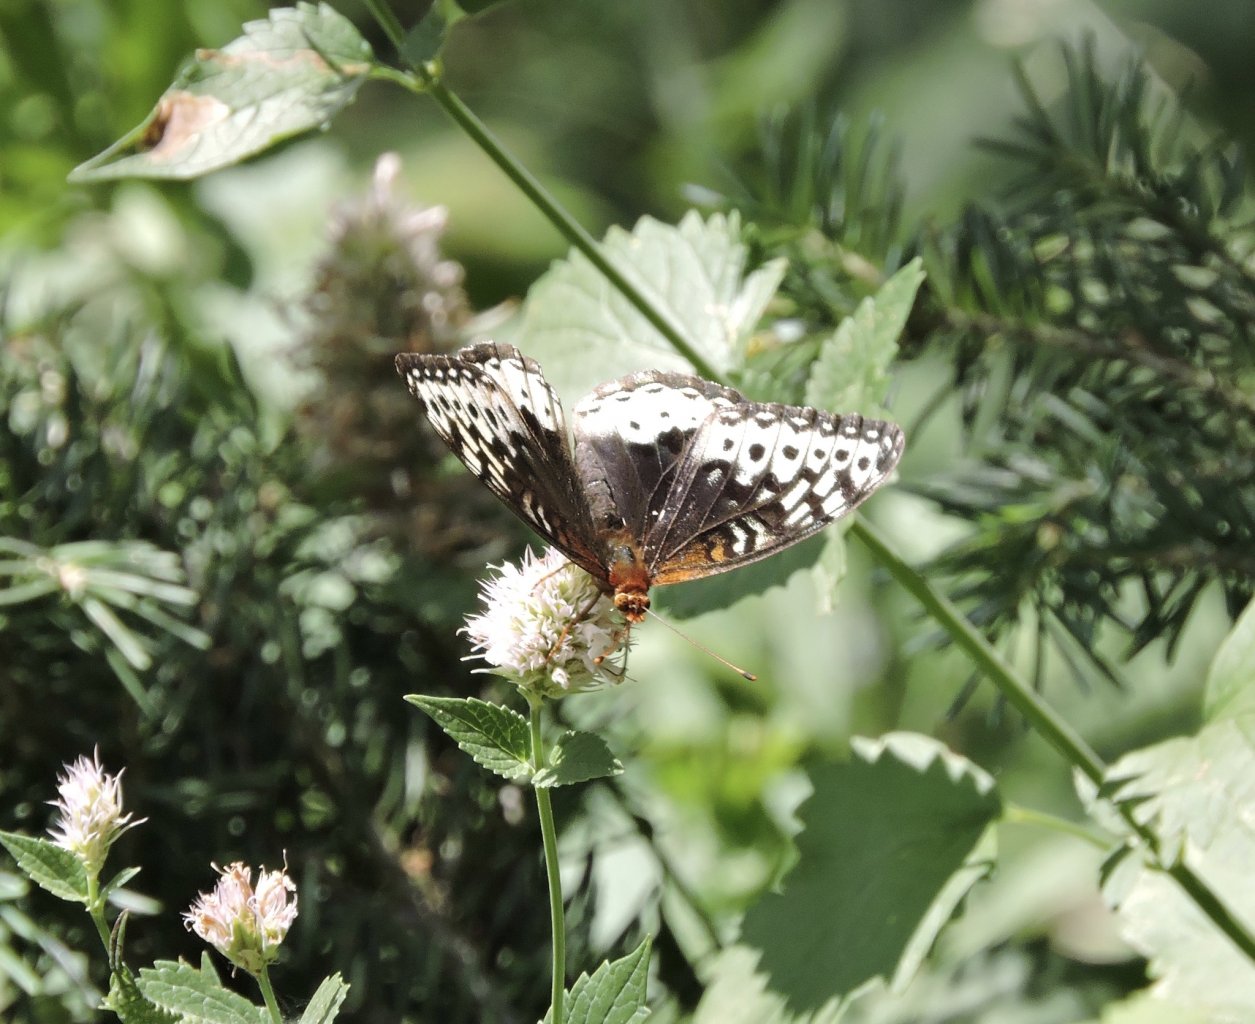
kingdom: Animalia
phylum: Arthropoda
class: Insecta
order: Lepidoptera
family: Nymphalidae
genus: Speyeria
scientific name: Speyeria nokomis
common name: Nokomis Fritillary
